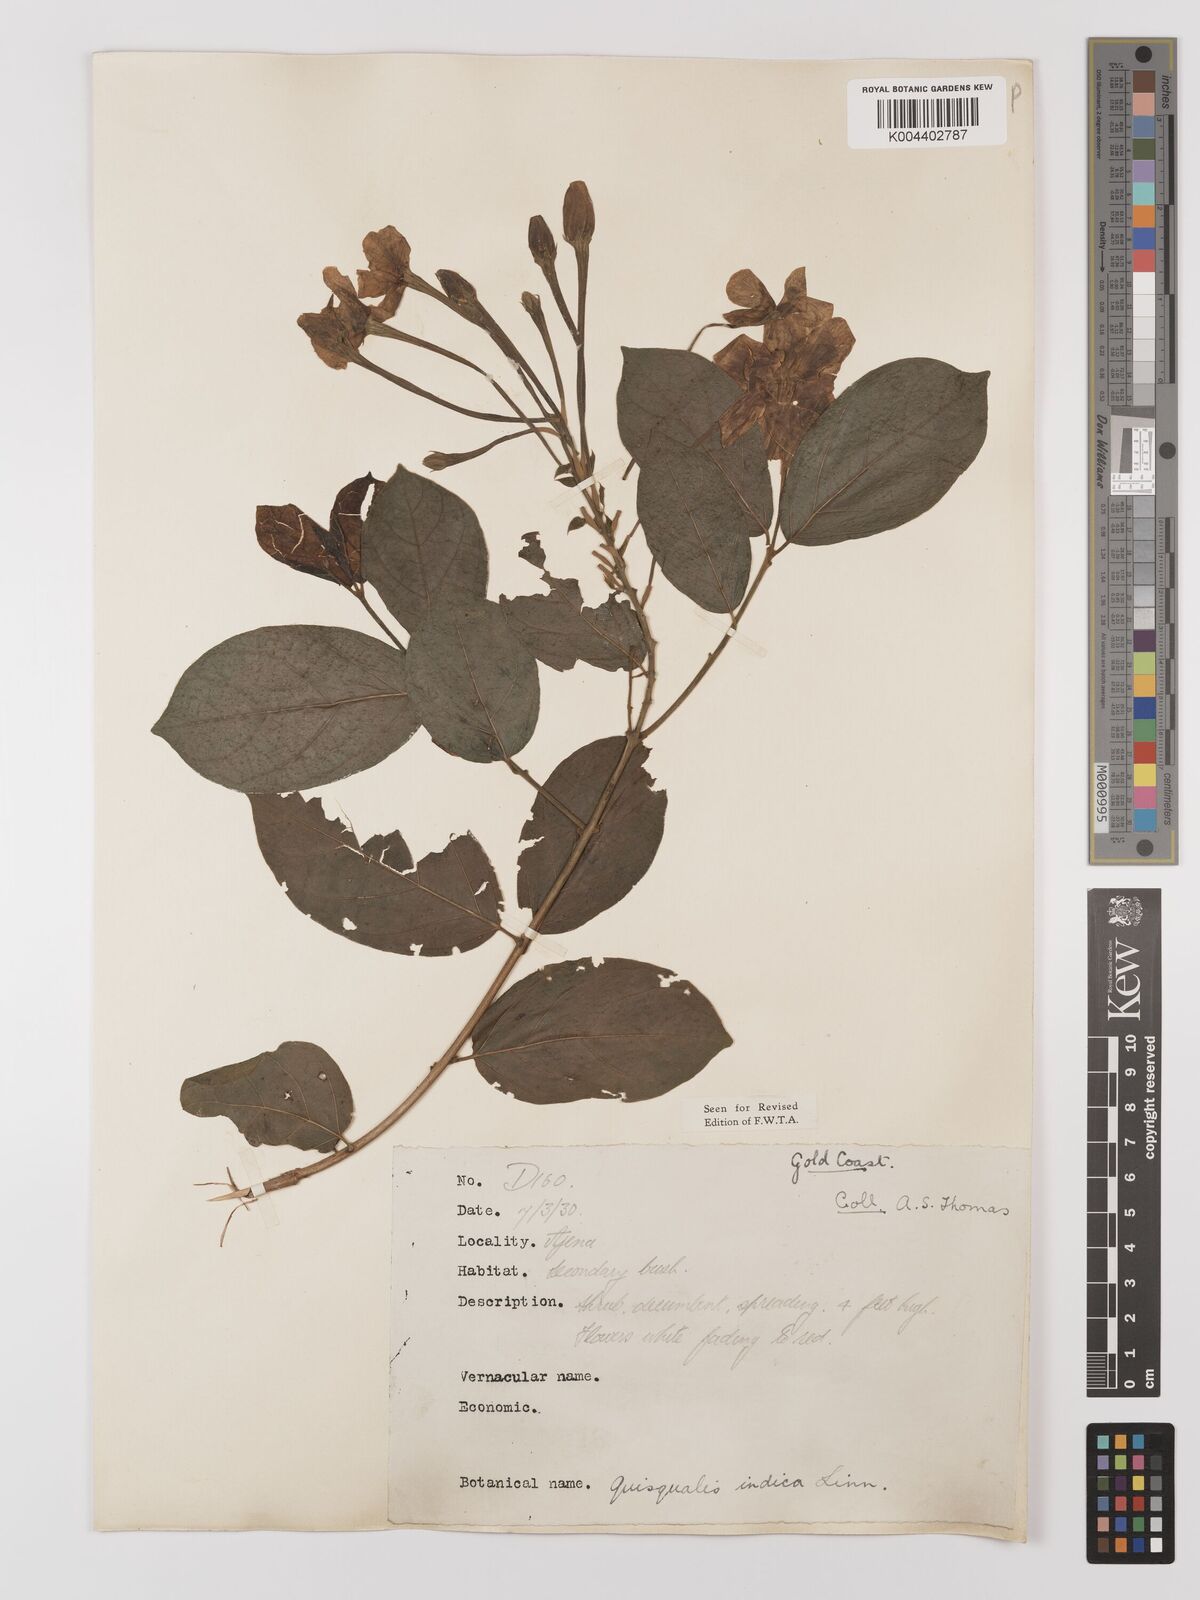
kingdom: Plantae
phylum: Tracheophyta
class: Magnoliopsida
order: Myrtales
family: Combretaceae
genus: Combretum
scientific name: Combretum
